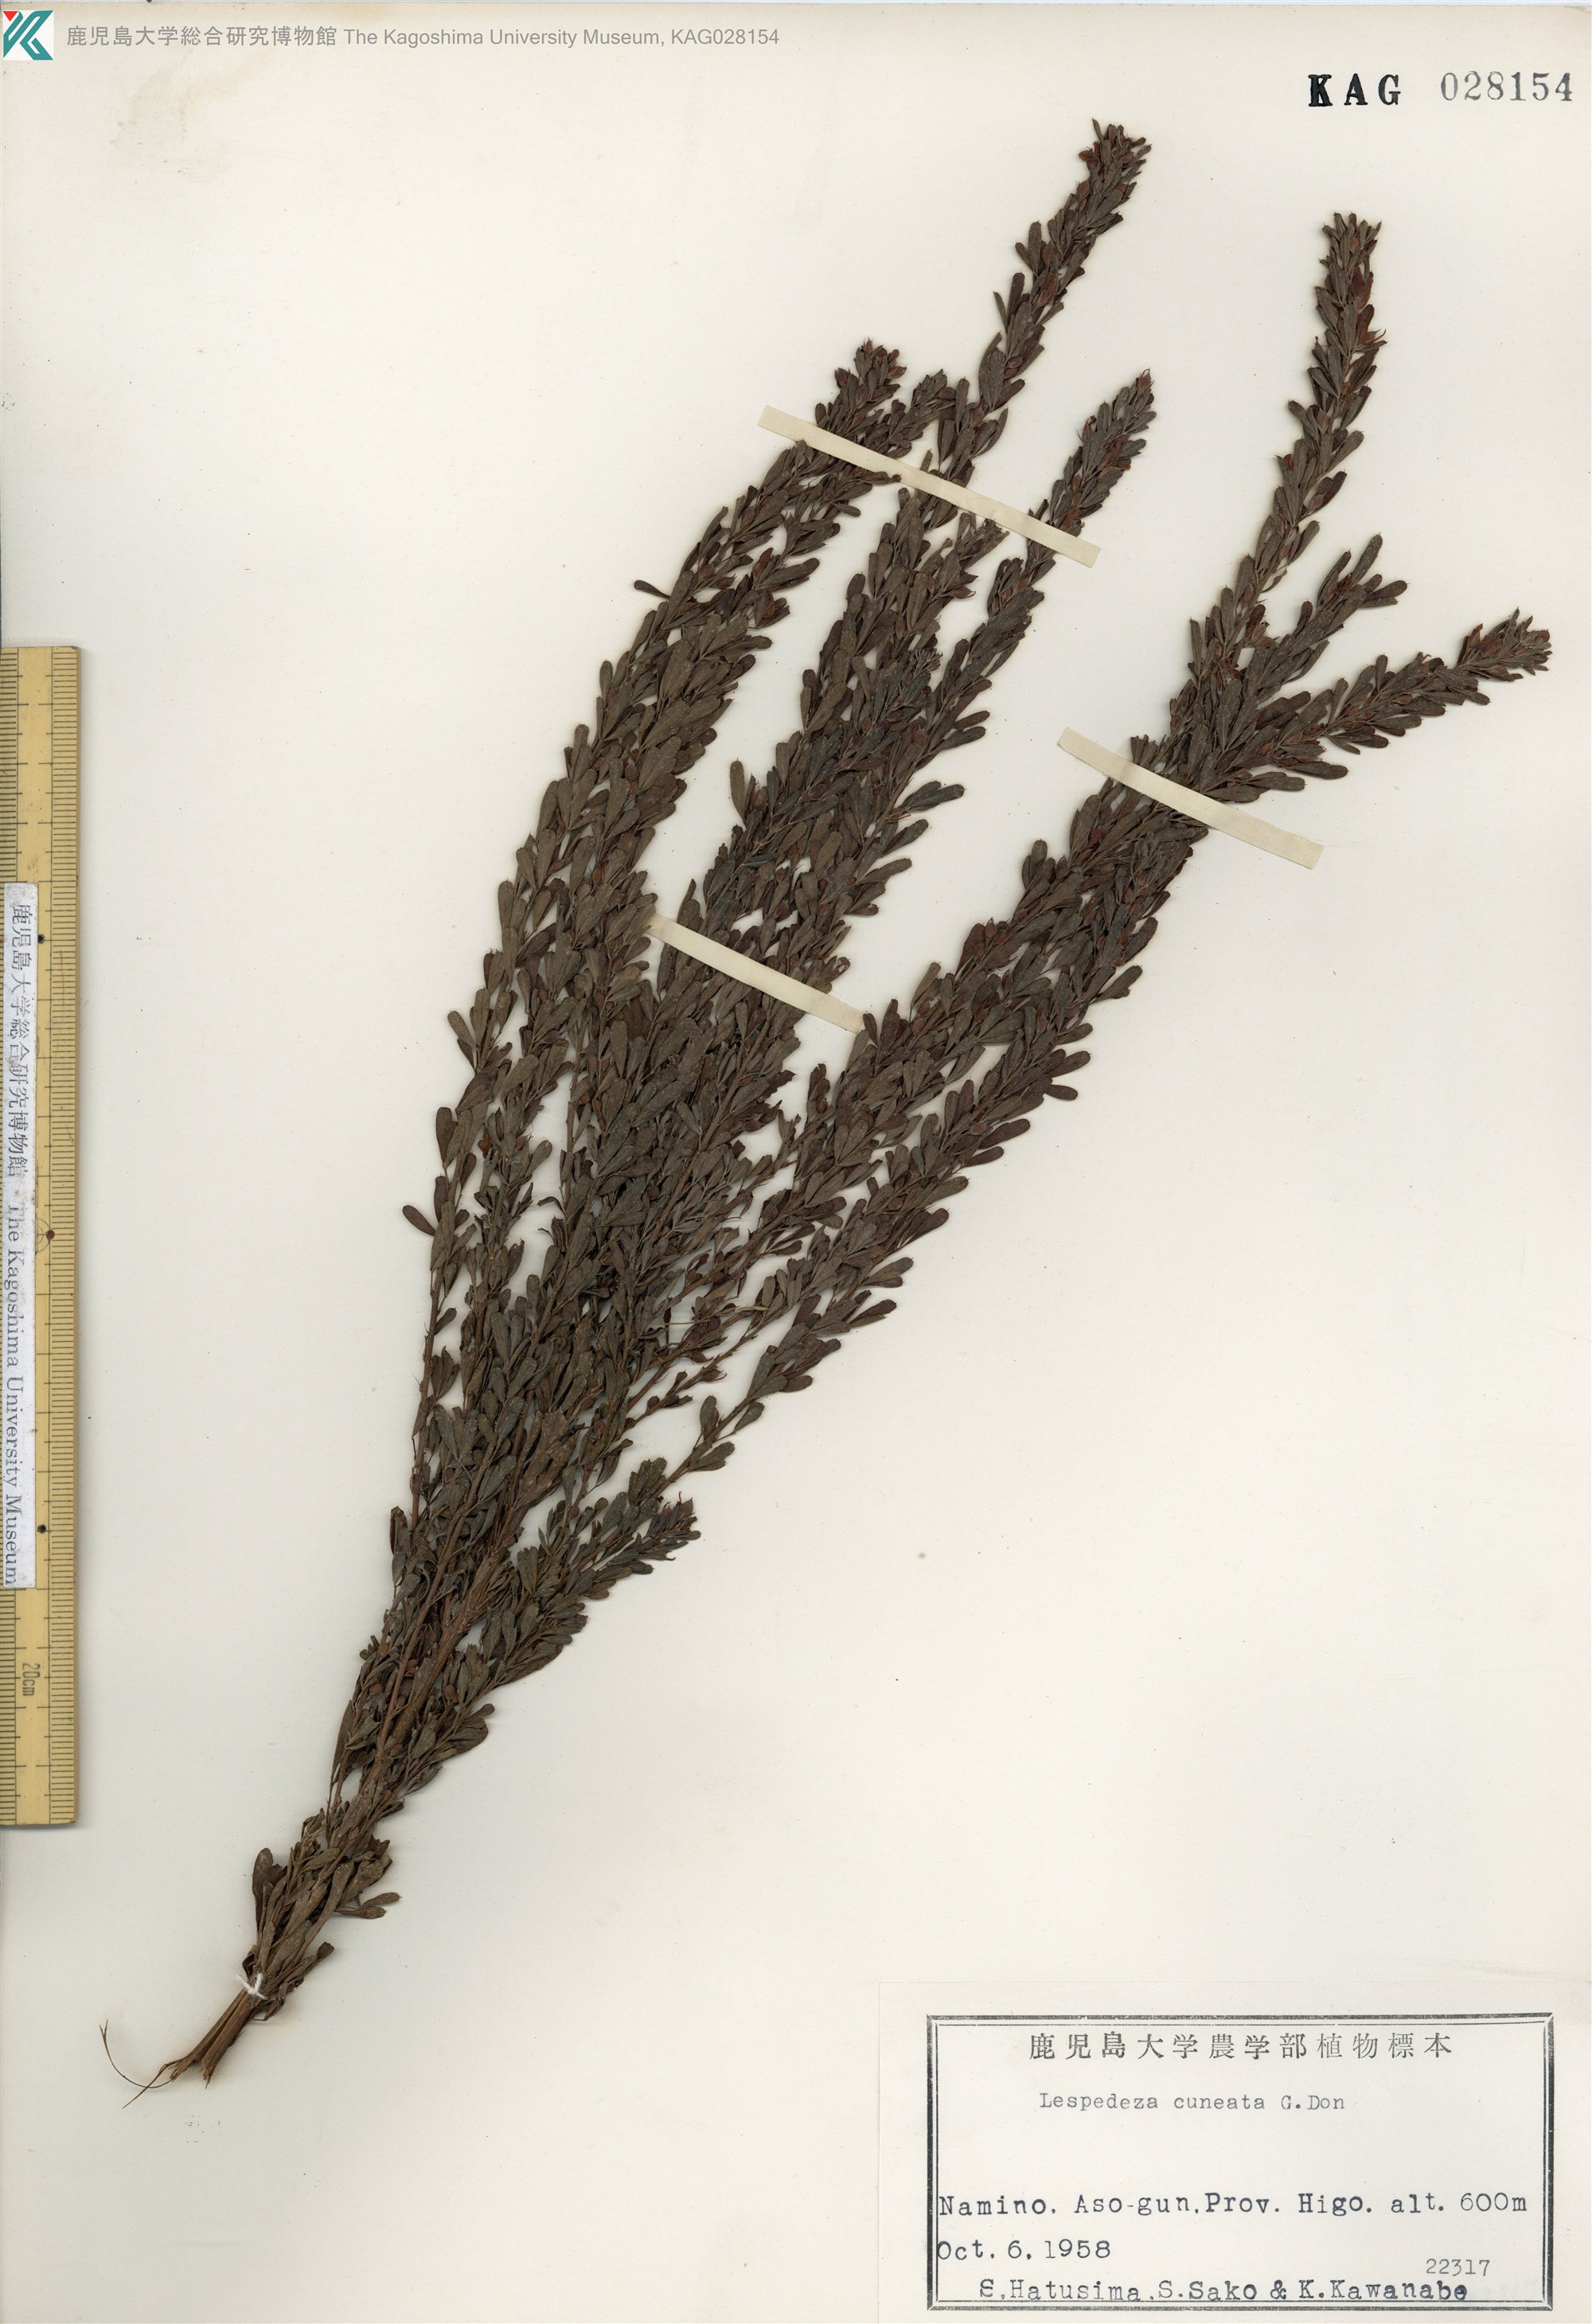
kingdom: Plantae
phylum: Tracheophyta
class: Magnoliopsida
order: Fabales
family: Fabaceae
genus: Lespedeza
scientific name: Lespedeza cuneata
